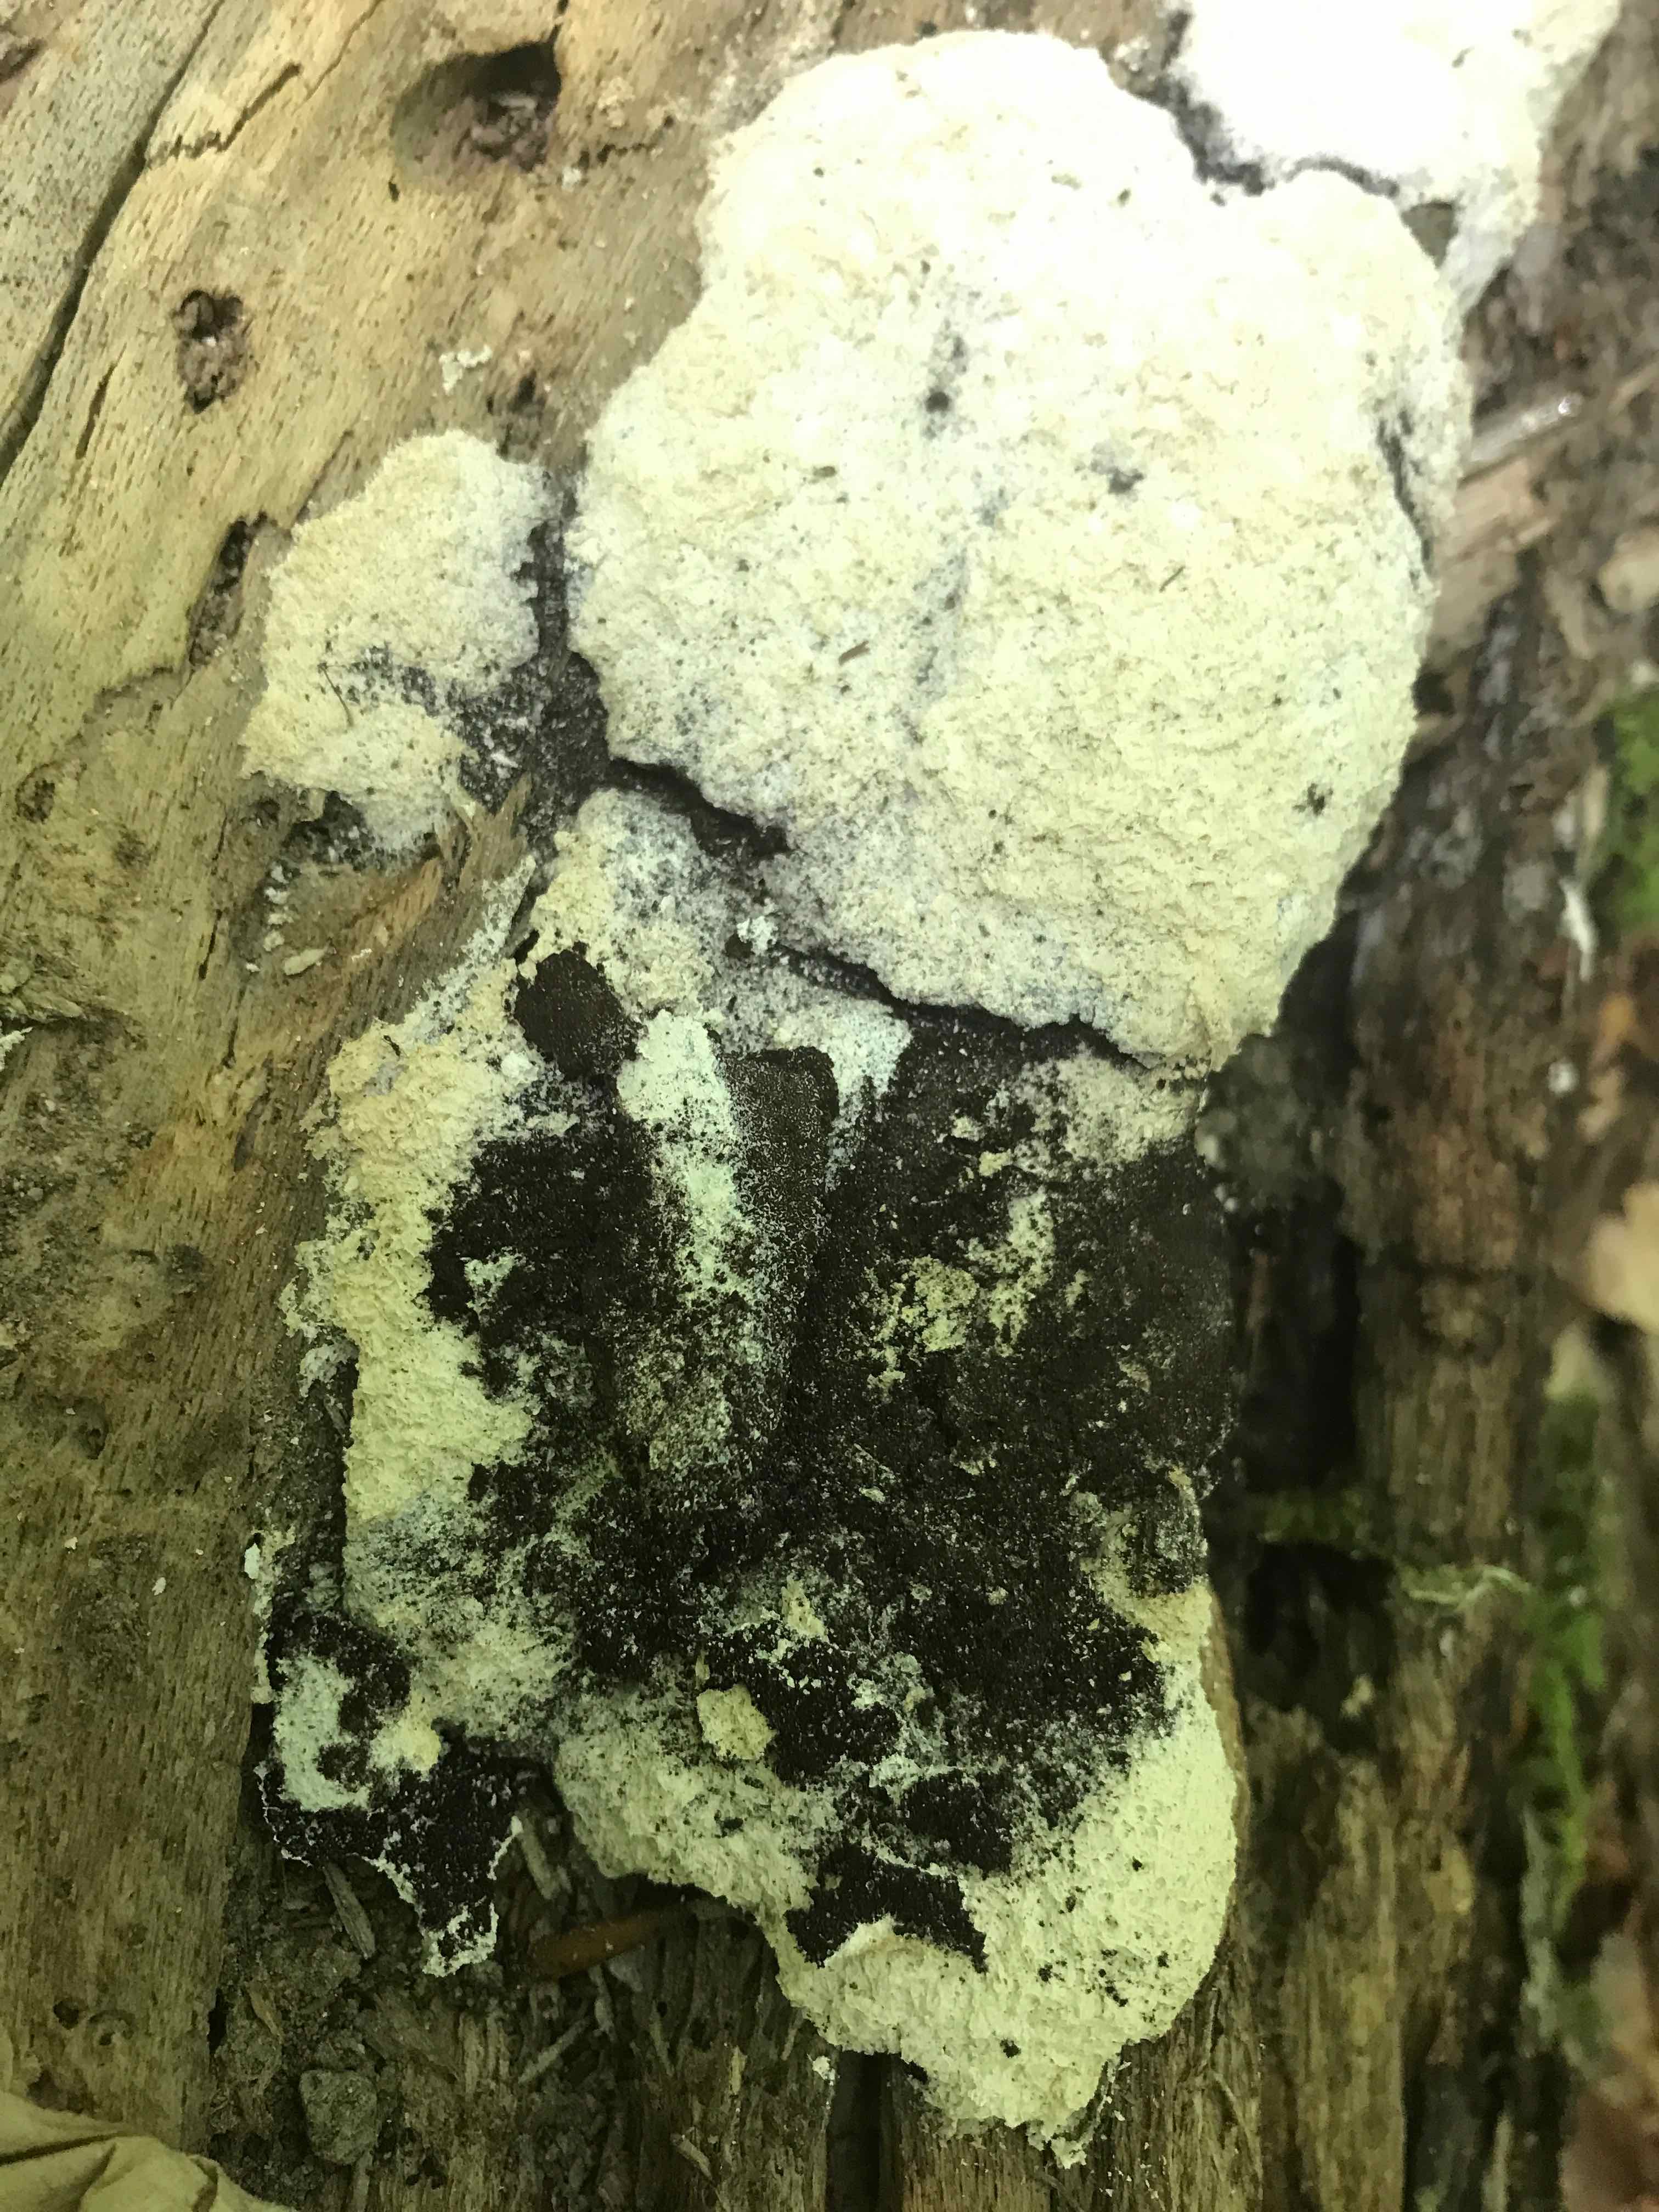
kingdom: Protozoa
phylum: Mycetozoa
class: Myxomycetes
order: Physarales
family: Physaraceae
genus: Fuligo
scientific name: Fuligo septica
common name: gul troldsmør
